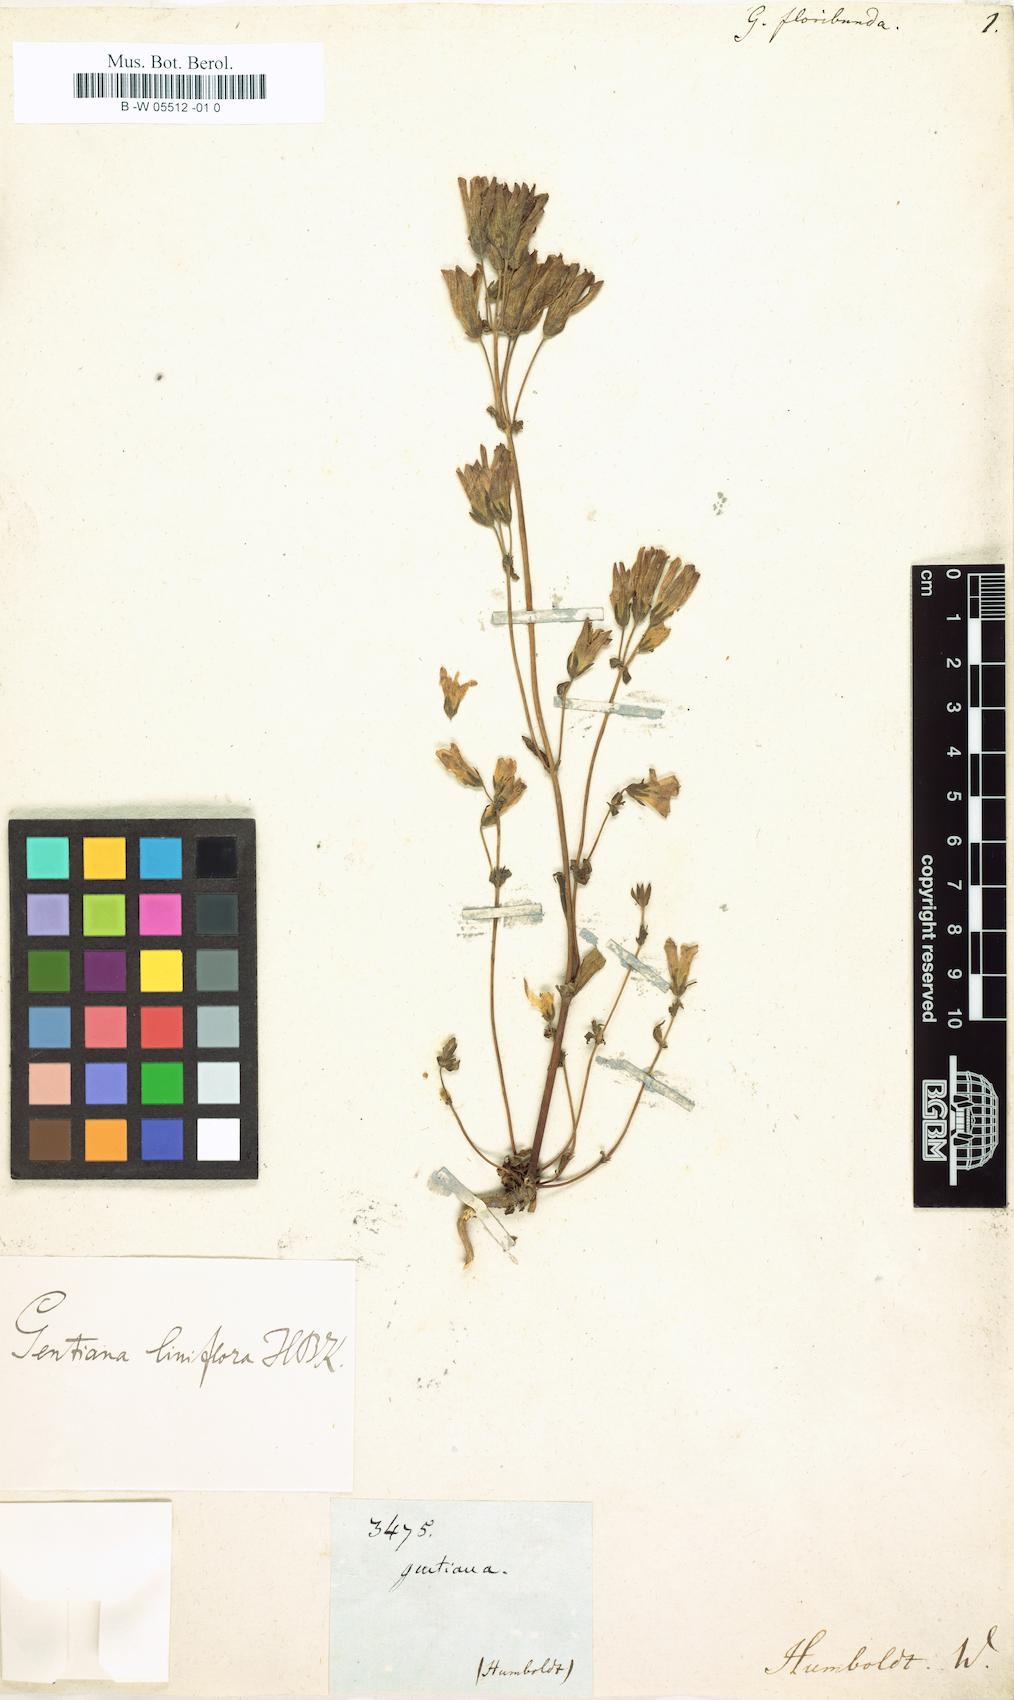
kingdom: Plantae
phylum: Tracheophyta
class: Magnoliopsida
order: Gentianales
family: Gentianaceae
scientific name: Gentianaceae
